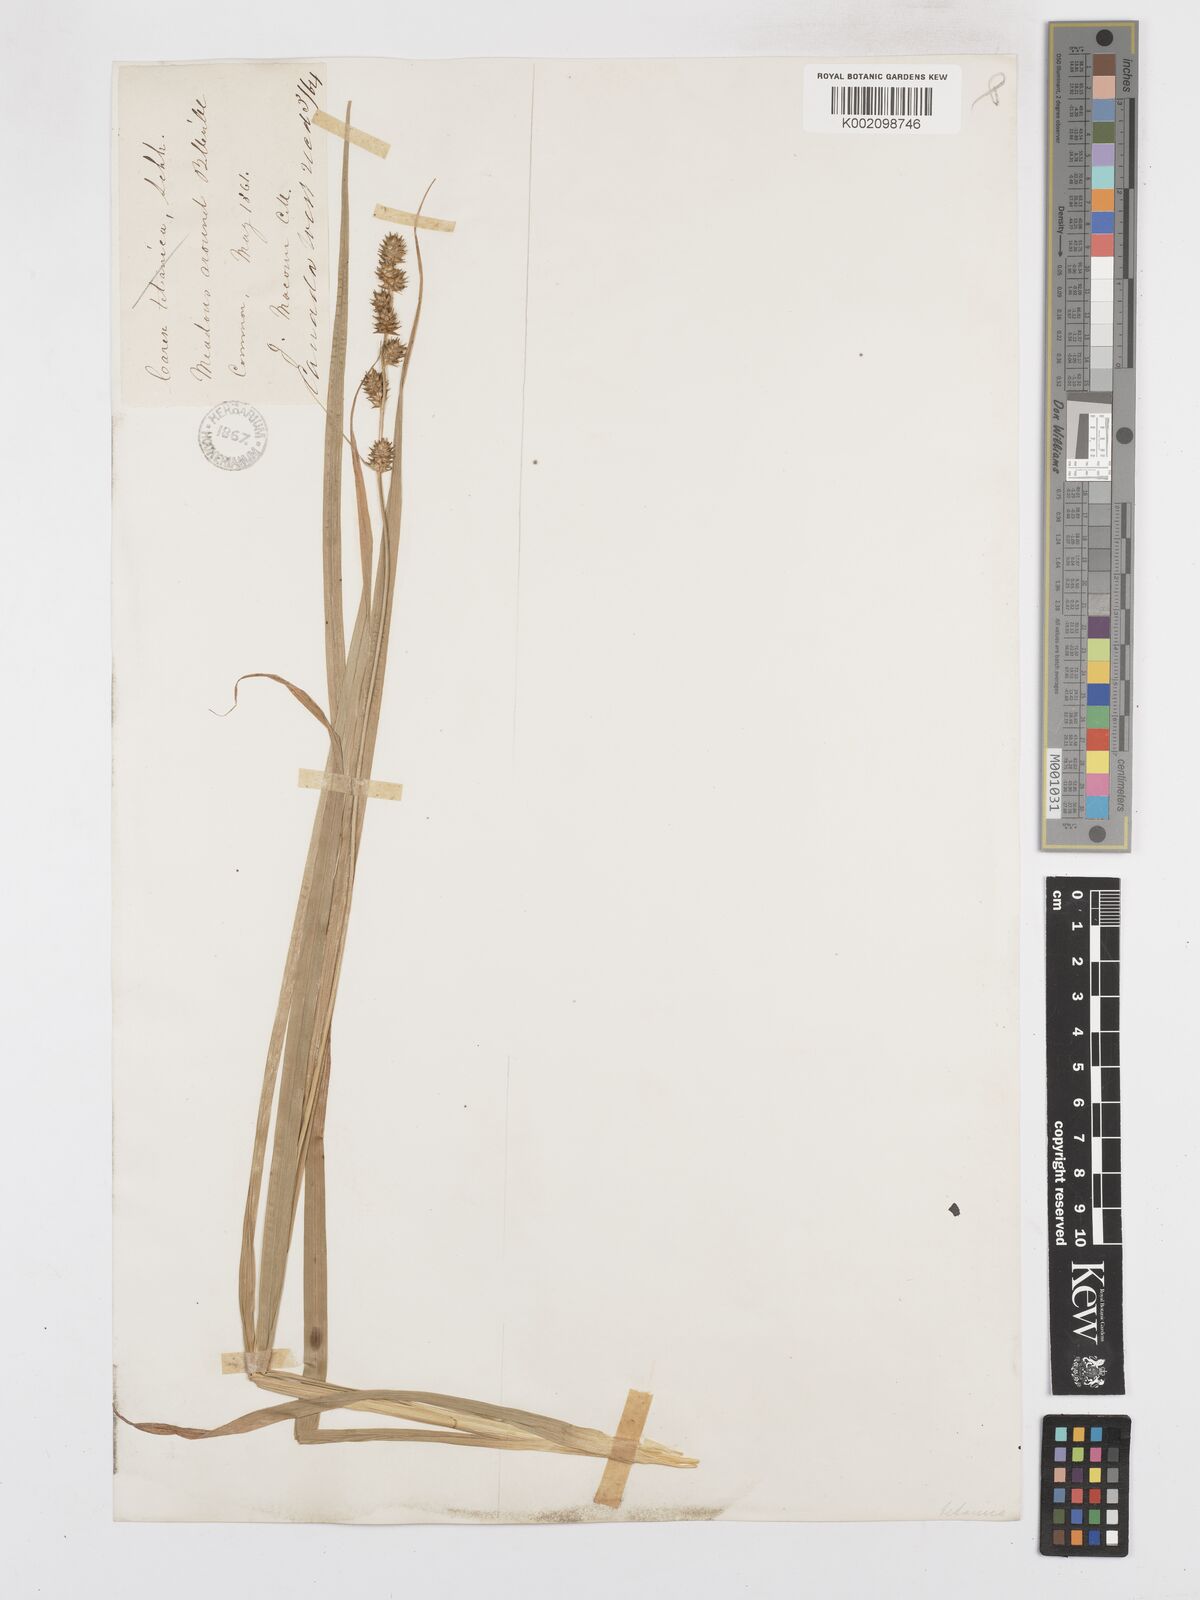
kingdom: Plantae
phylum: Tracheophyta
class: Liliopsida
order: Poales
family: Cyperaceae
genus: Carex
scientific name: Carex sparganioides
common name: Burreed sedge
